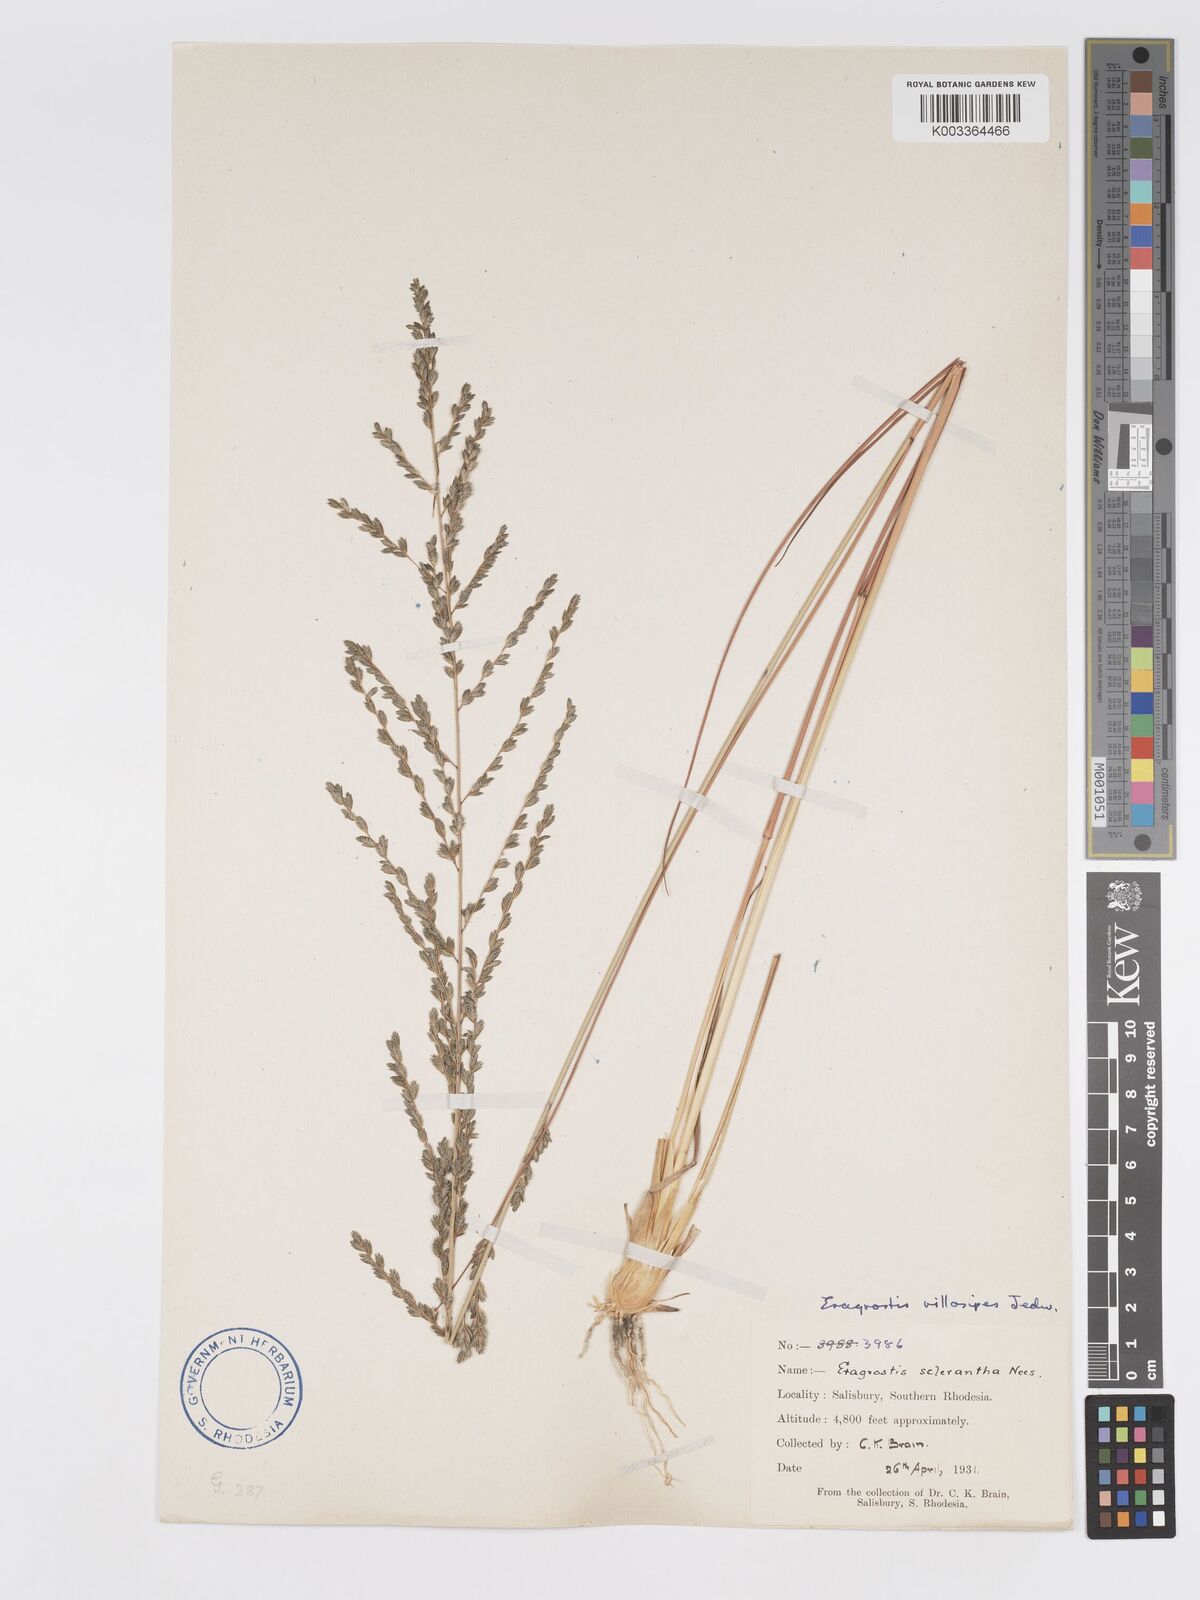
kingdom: Plantae
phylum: Tracheophyta
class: Liliopsida
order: Poales
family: Poaceae
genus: Eragrostis
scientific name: Eragrostis sclerantha
